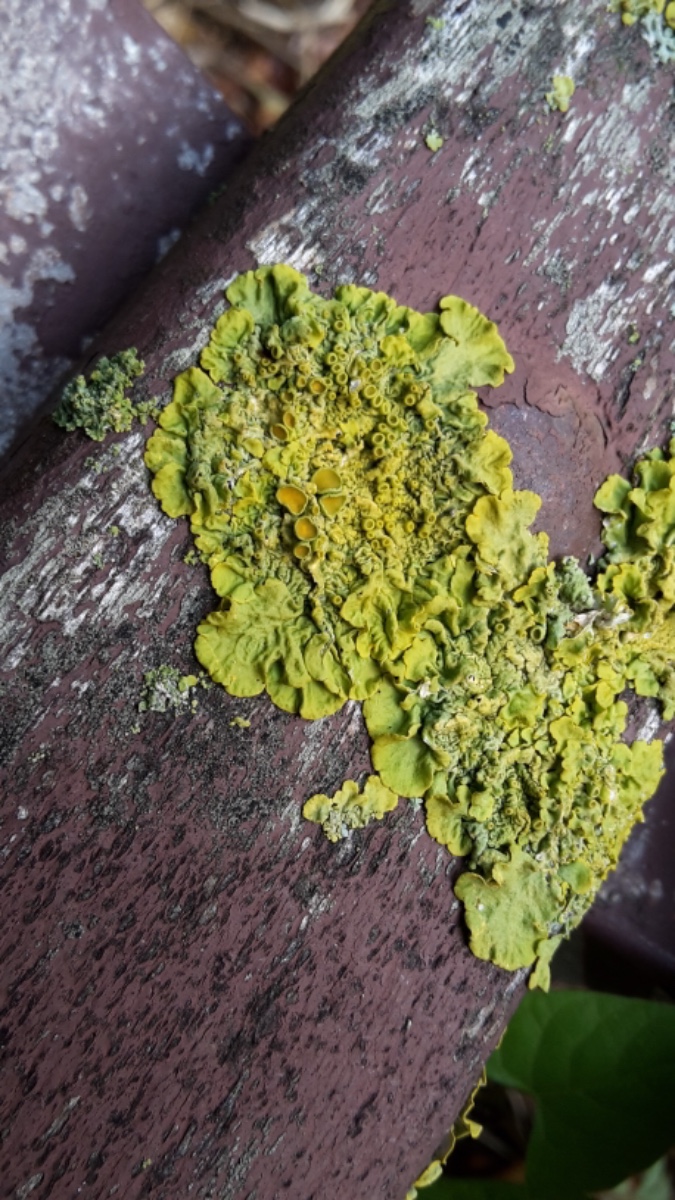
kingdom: Fungi
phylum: Ascomycota
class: Lecanoromycetes
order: Teloschistales
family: Teloschistaceae
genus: Xanthoria
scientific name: Xanthoria parietina
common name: almindelig væggelav
